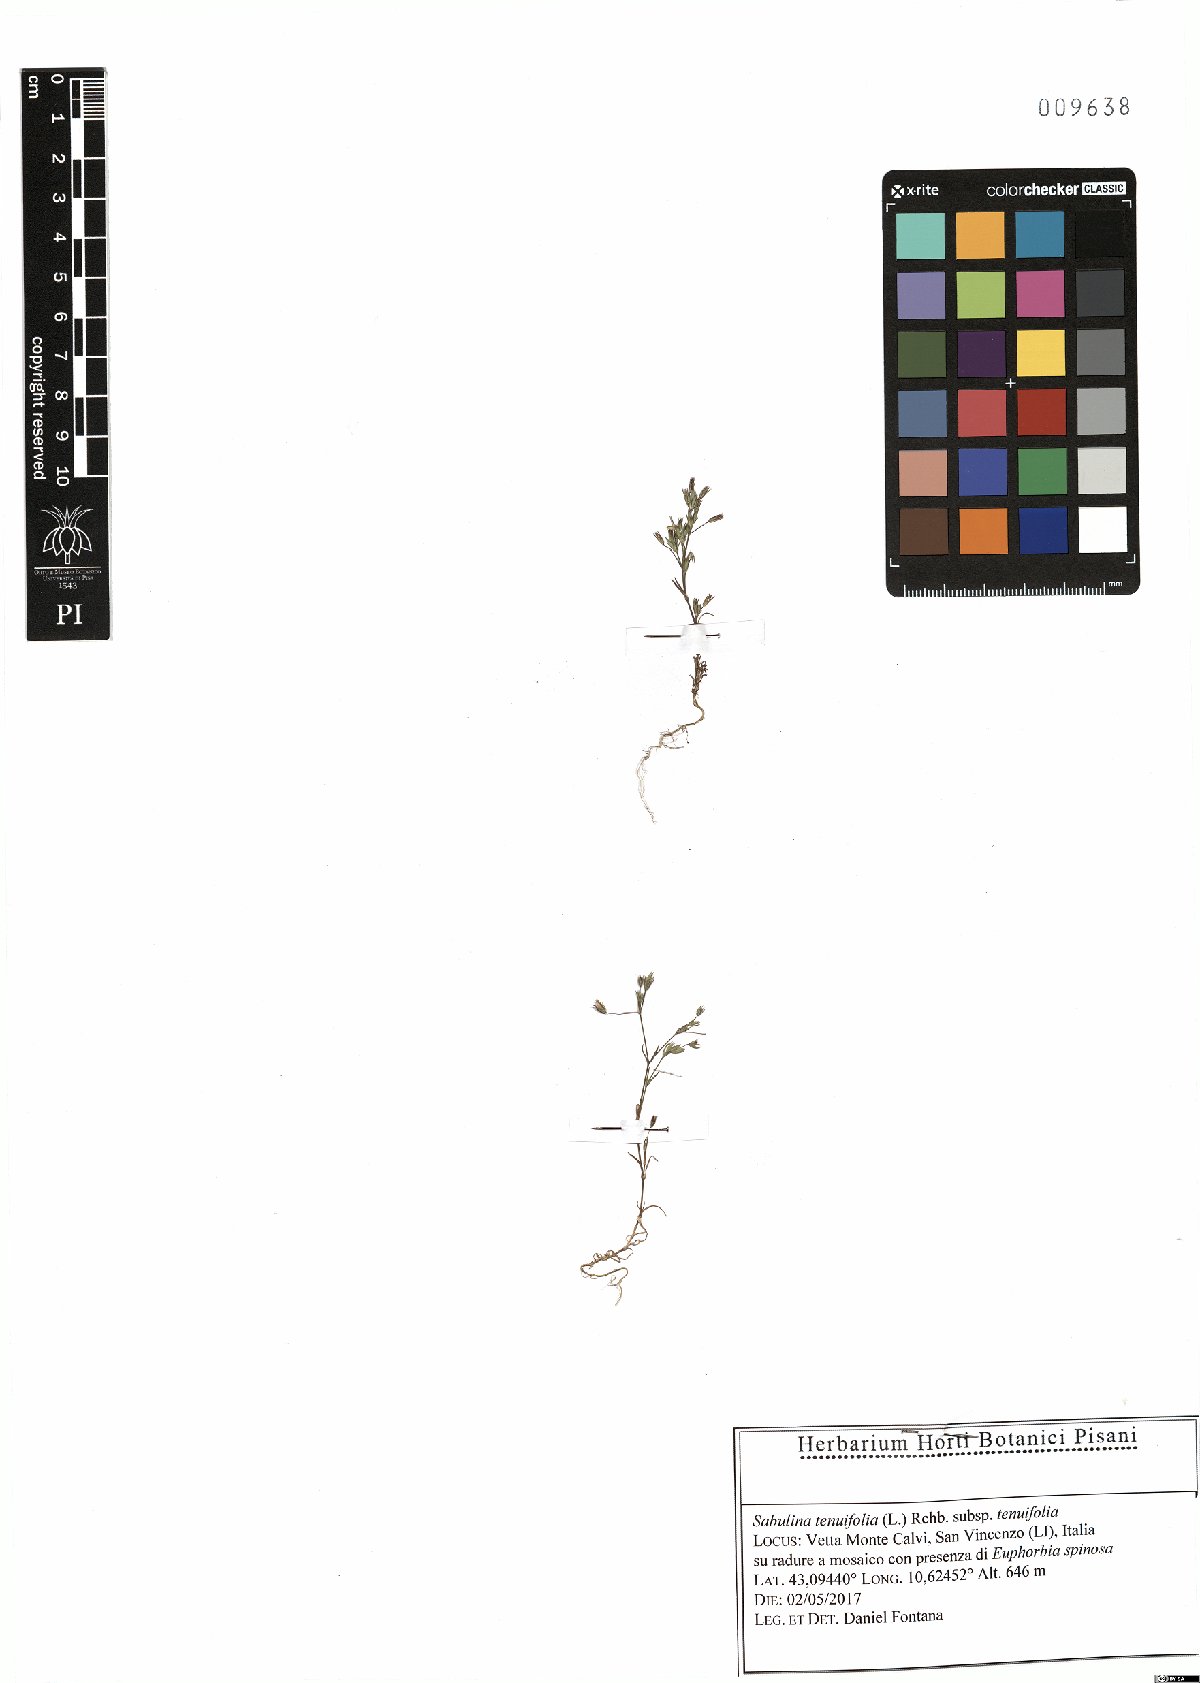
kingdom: Plantae
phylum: Tracheophyta
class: Magnoliopsida
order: Caryophyllales
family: Caryophyllaceae
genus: Sabulina
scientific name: Sabulina tenuifolia
